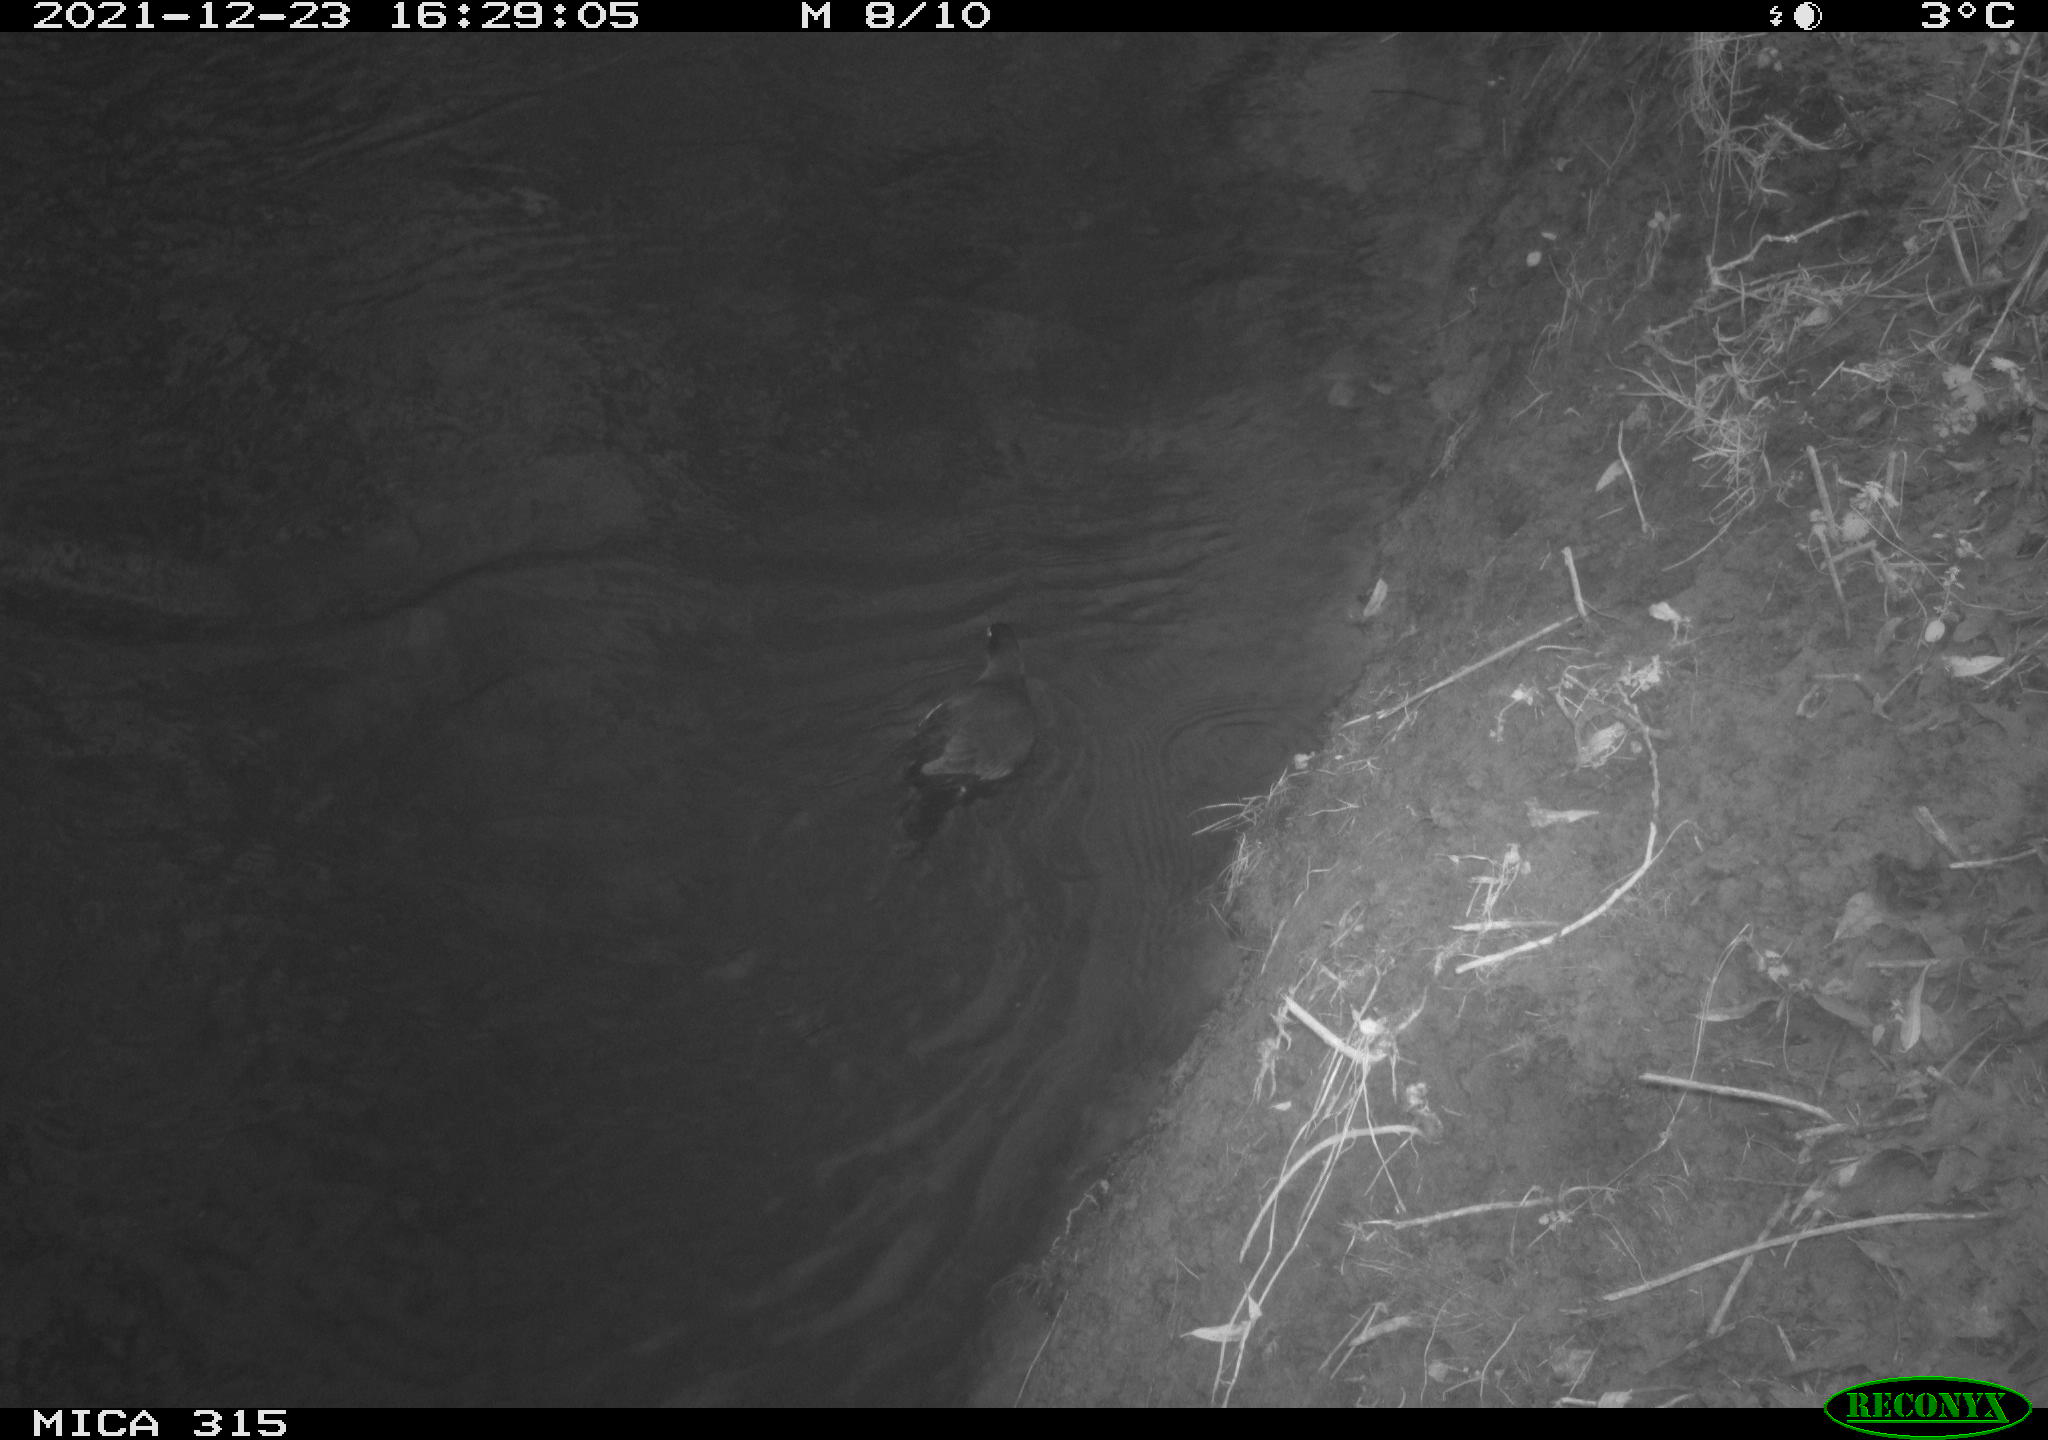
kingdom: Animalia
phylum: Chordata
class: Aves
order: Gruiformes
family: Rallidae
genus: Gallinula
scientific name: Gallinula chloropus
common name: Common moorhen
